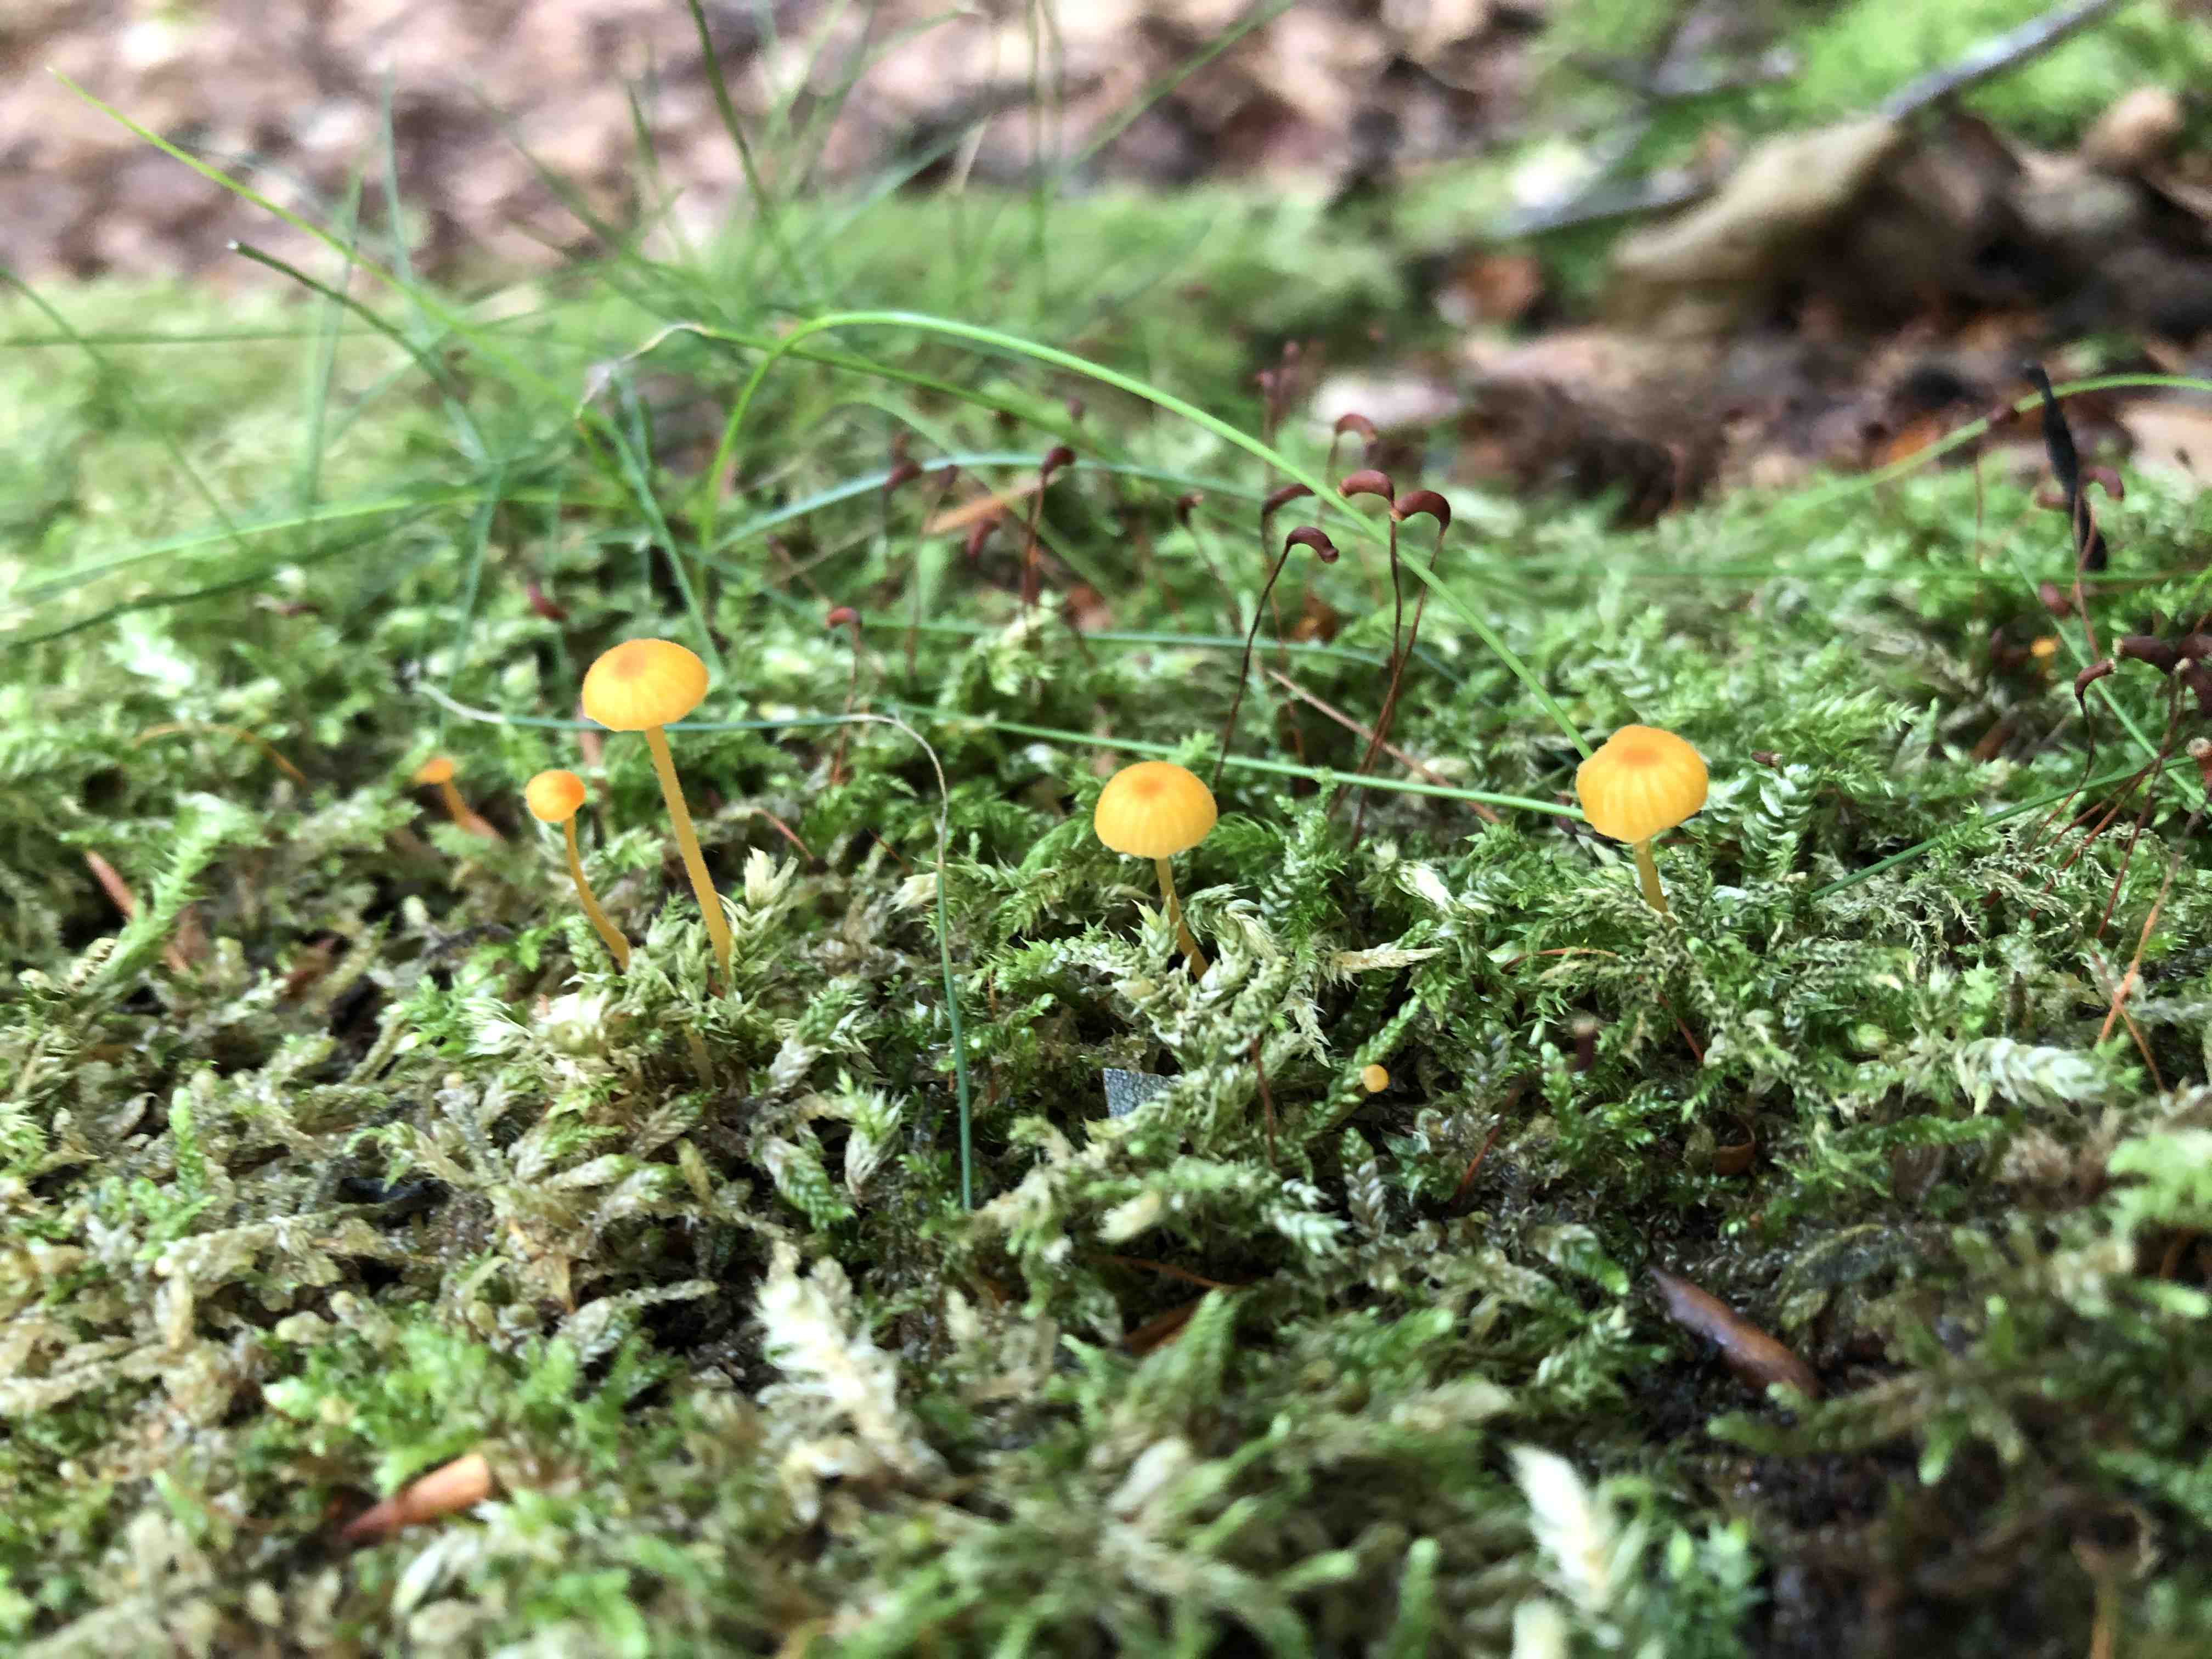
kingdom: Fungi
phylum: Basidiomycota
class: Agaricomycetes
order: Hymenochaetales
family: Rickenellaceae
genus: Rickenella
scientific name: Rickenella fibula
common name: orange mosnavlehat
